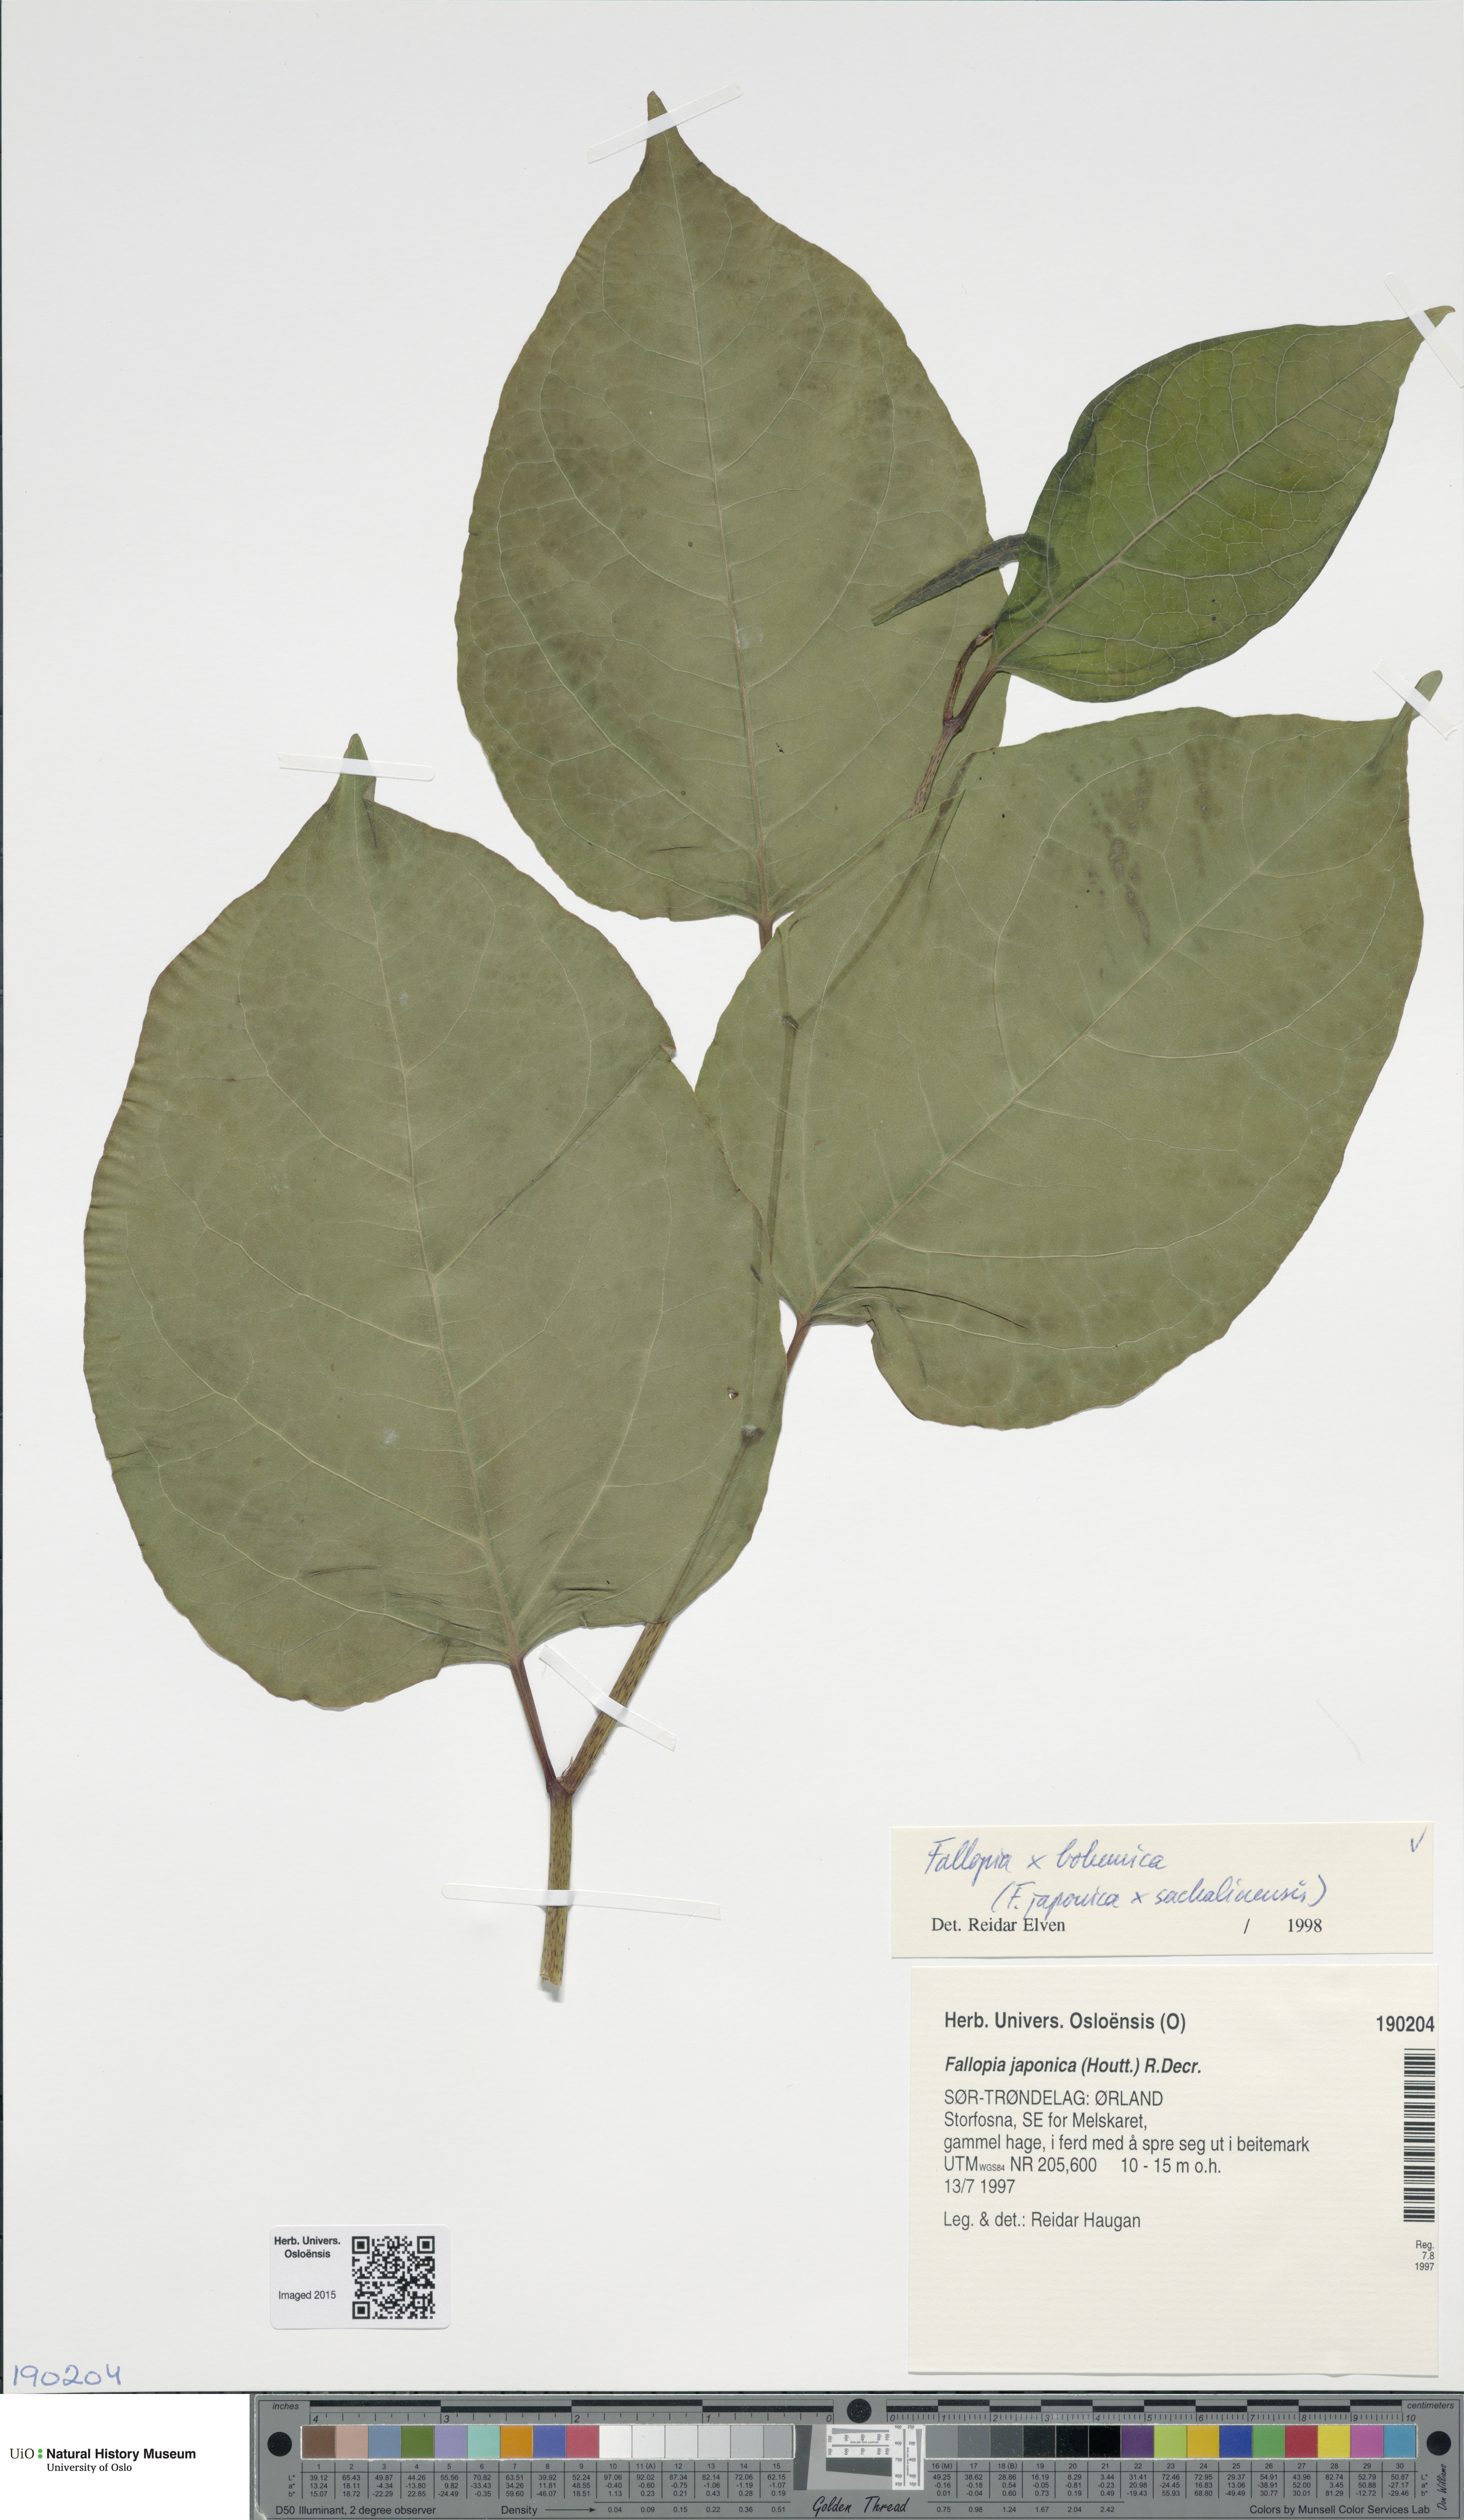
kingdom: Plantae
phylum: Tracheophyta
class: Magnoliopsida
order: Caryophyllales
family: Polygonaceae
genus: Reynoutria
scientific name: Reynoutria
